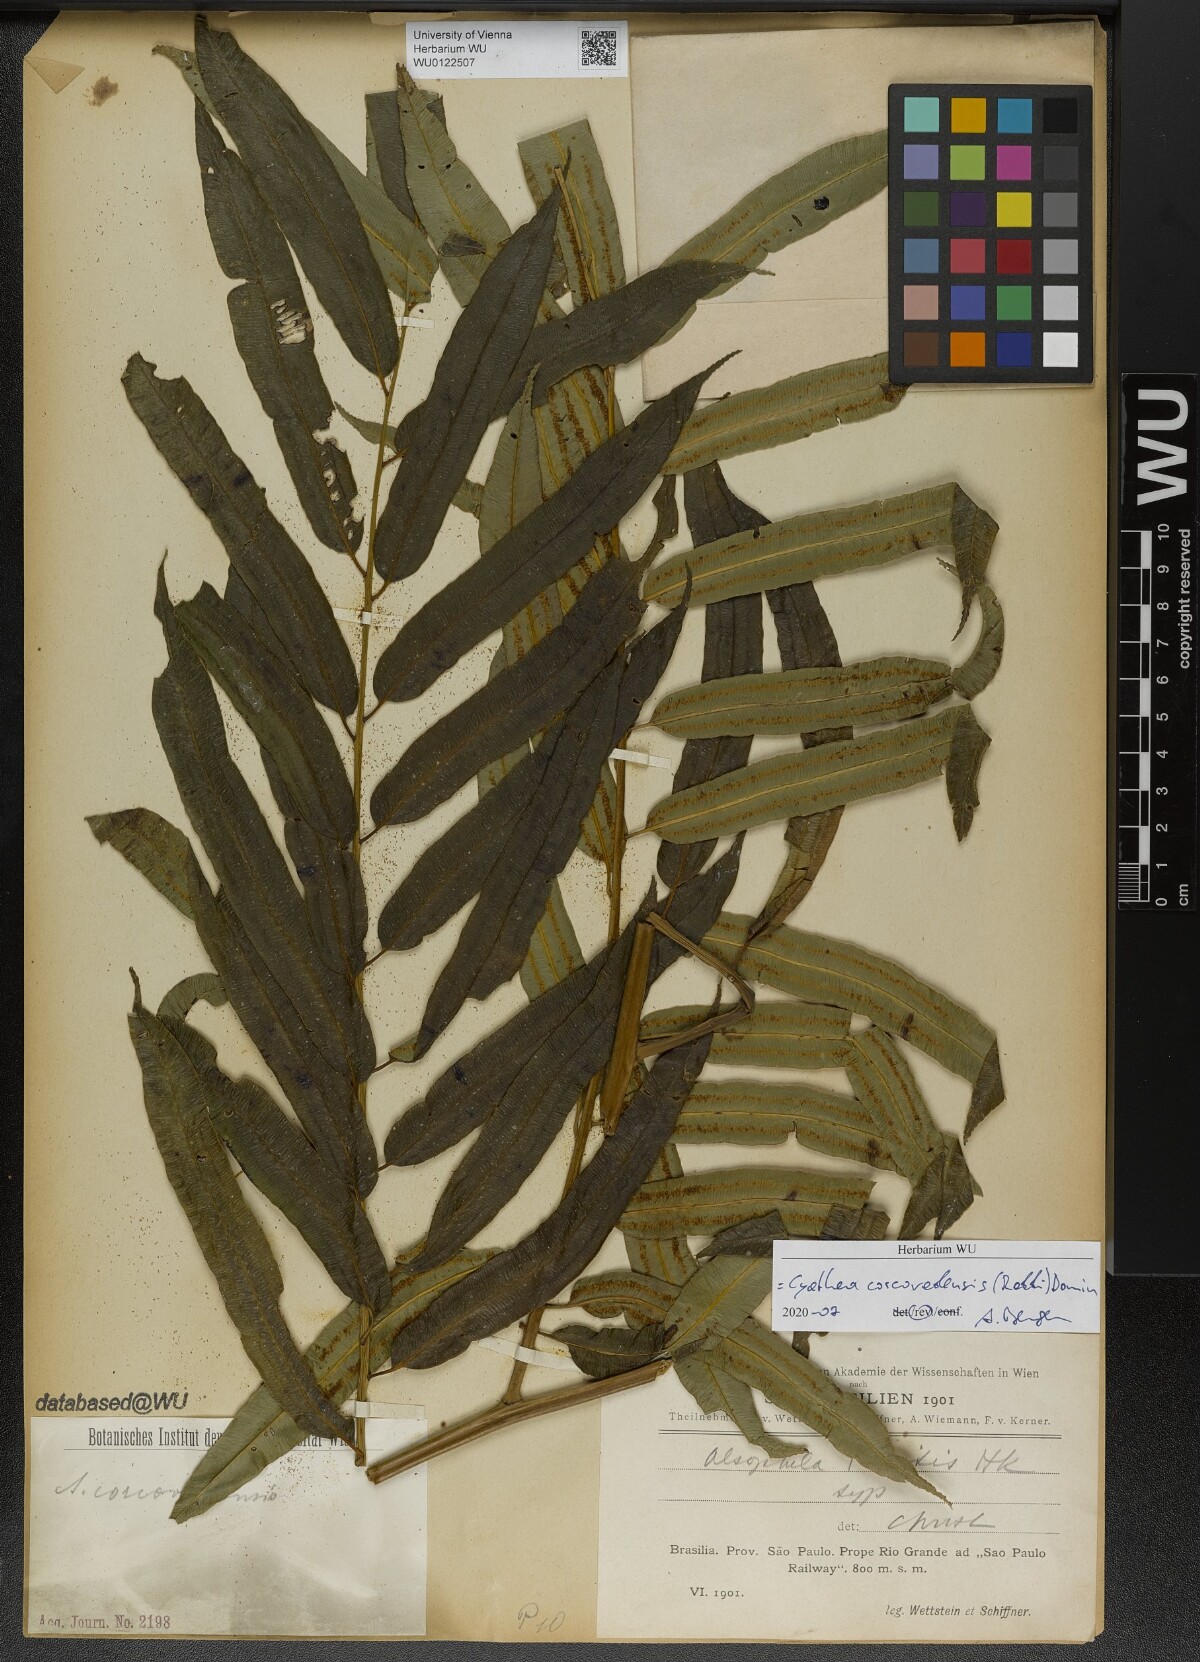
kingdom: Plantae
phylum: Tracheophyta
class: Polypodiopsida
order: Cyatheales
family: Cyatheaceae
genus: Cyathea
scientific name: Cyathea corcovadensis
